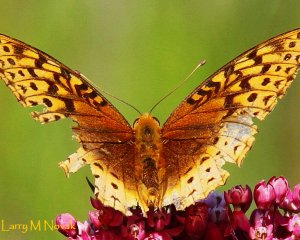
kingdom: Animalia
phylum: Arthropoda
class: Insecta
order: Lepidoptera
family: Nymphalidae
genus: Speyeria
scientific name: Speyeria cybele
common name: Great Spangled Fritillary
